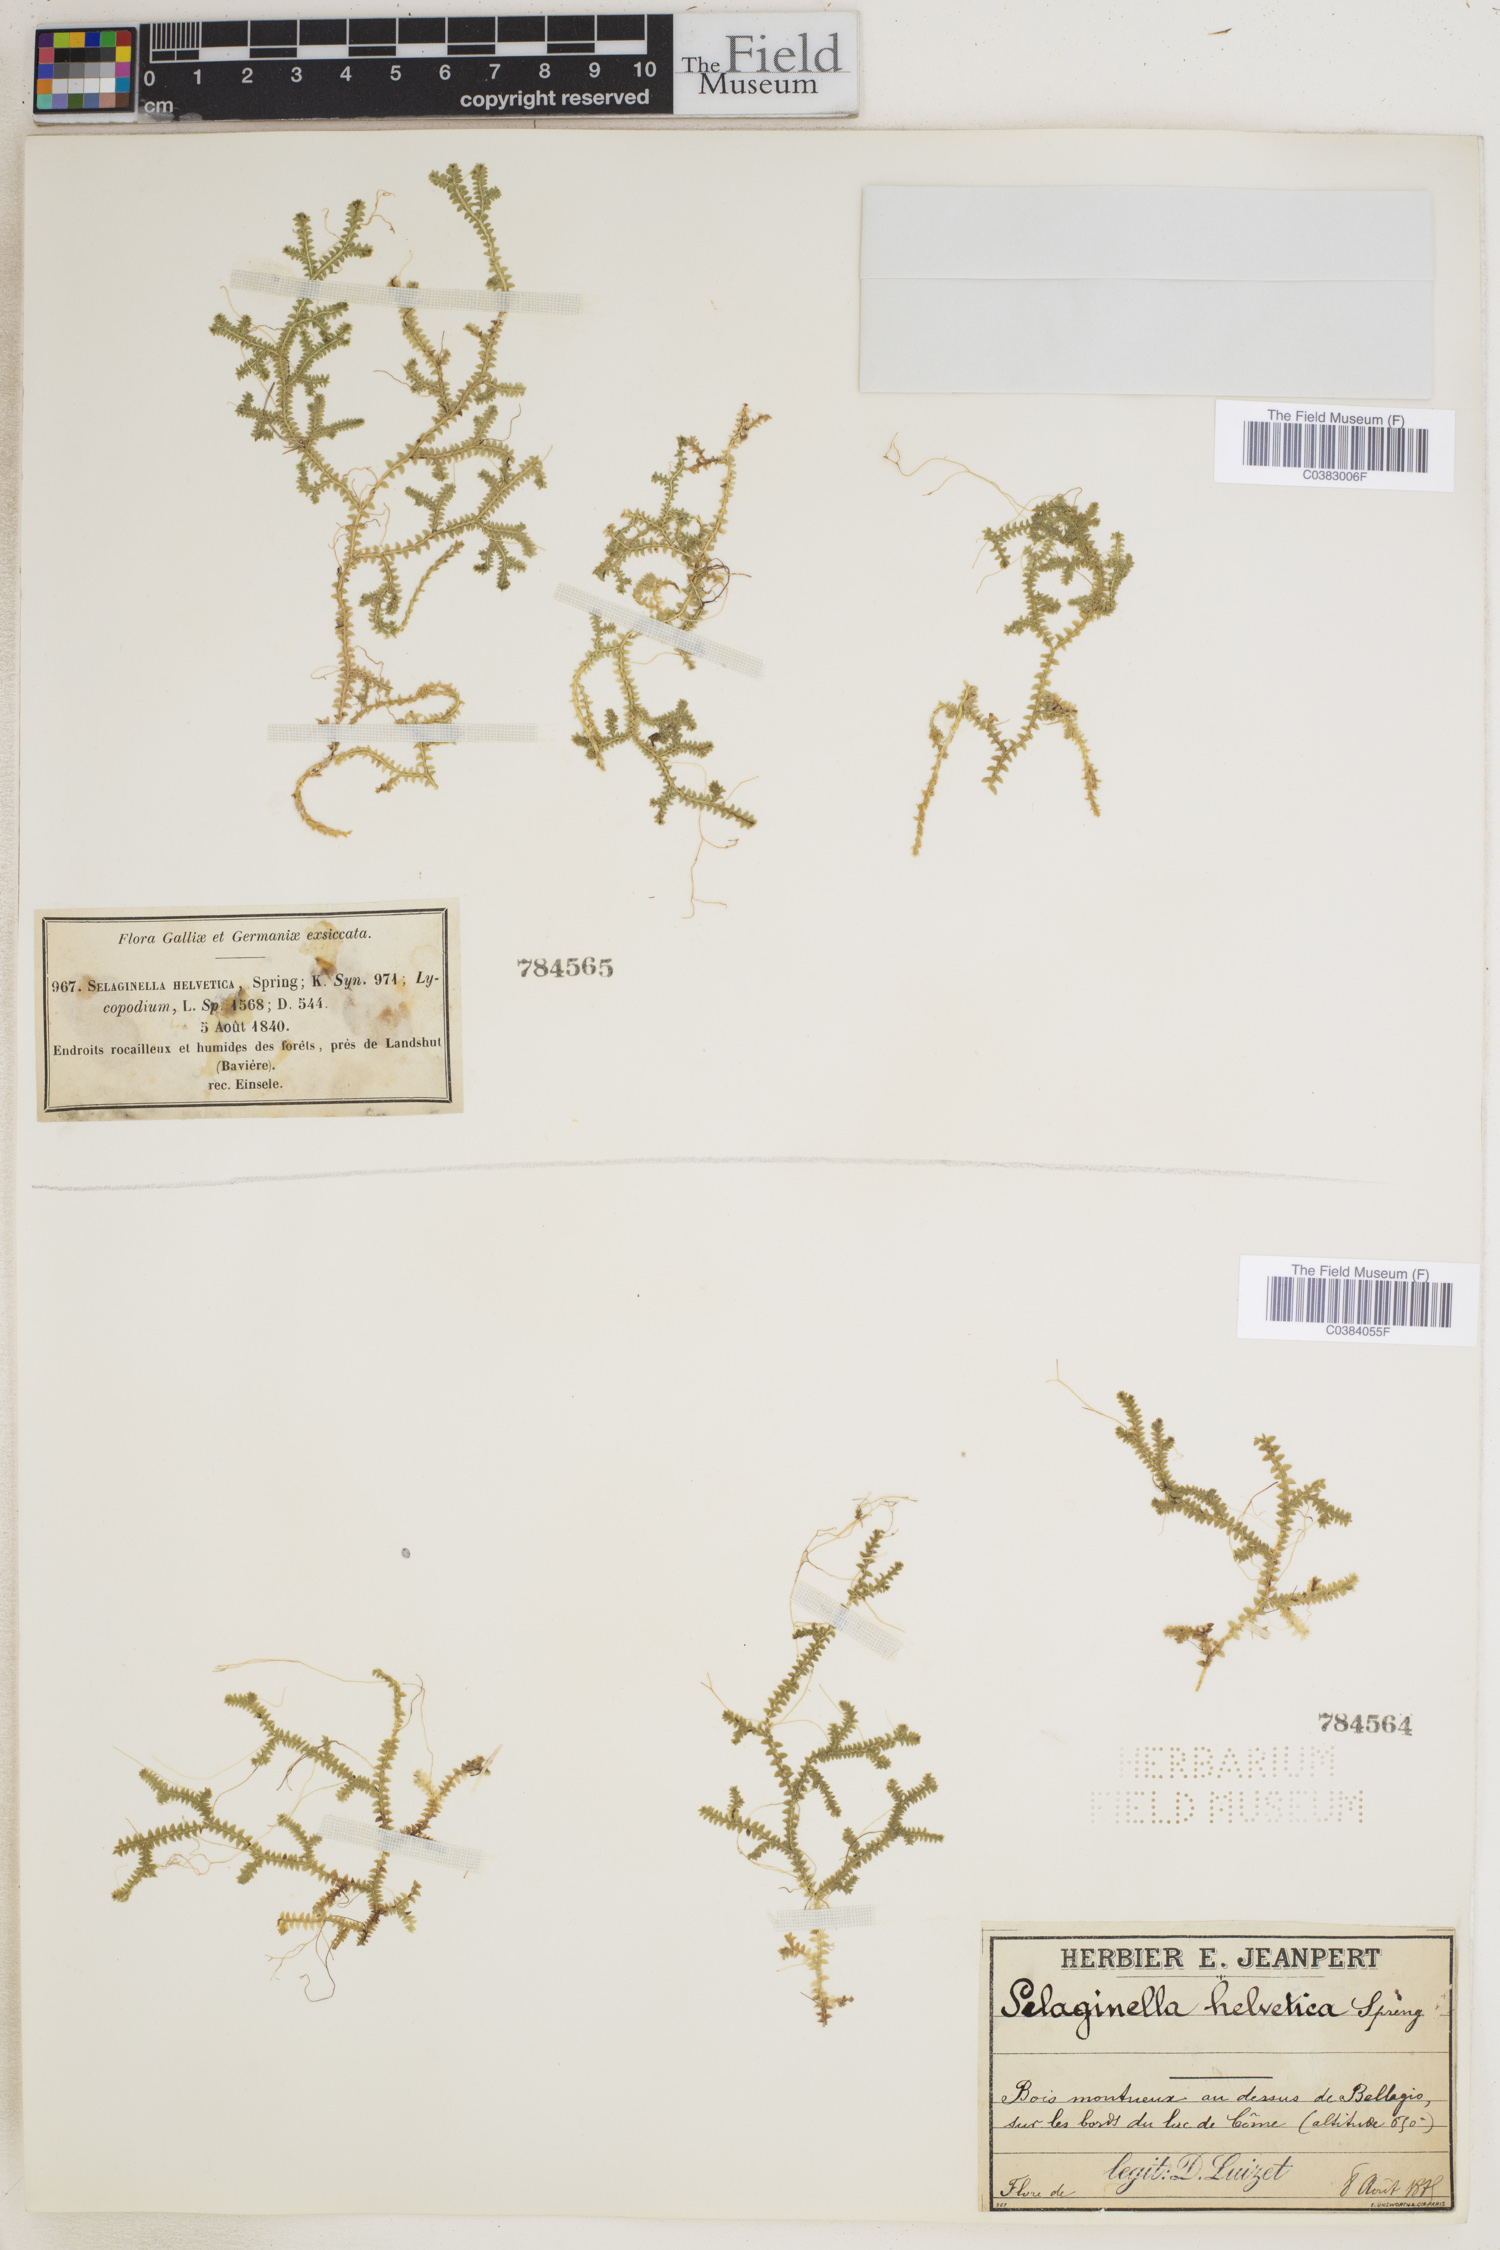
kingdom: Plantae
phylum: Tracheophyta
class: Lycopodiopsida
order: Selaginellales
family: Selaginellaceae
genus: Selaginella
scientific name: Selaginella helvetica
